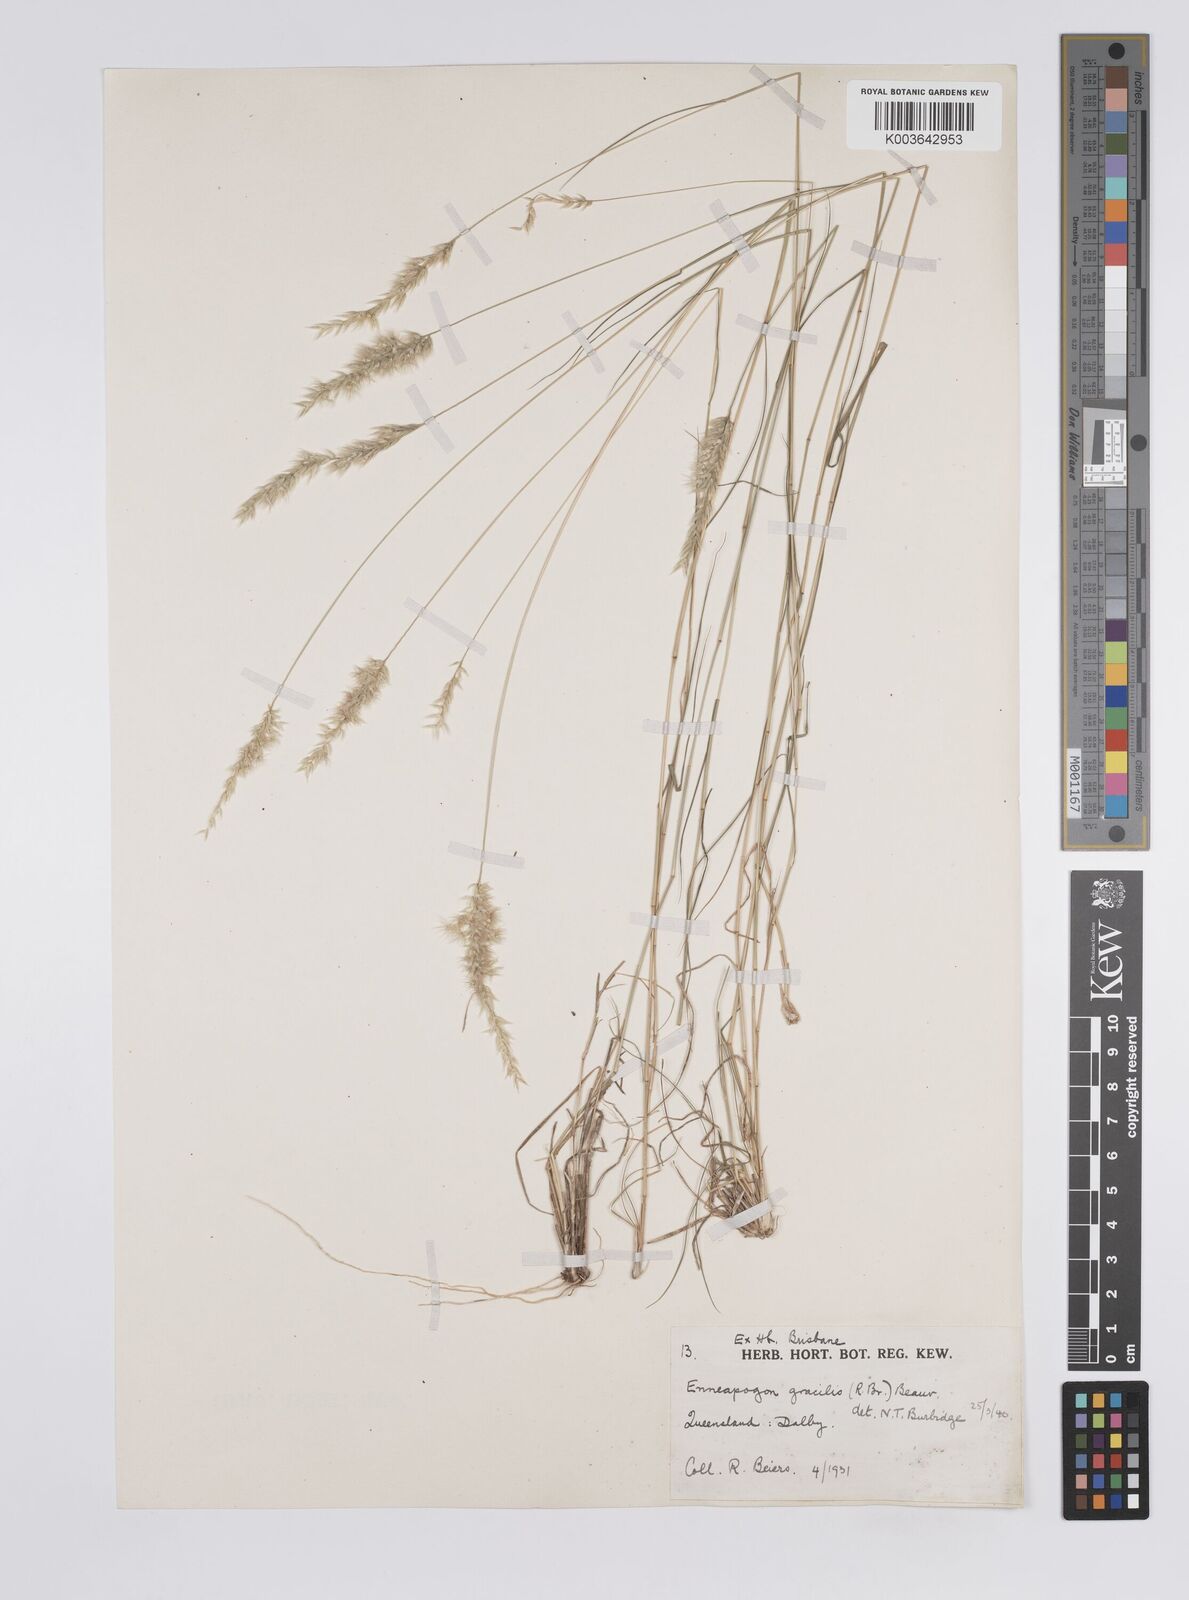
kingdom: Plantae
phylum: Tracheophyta
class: Liliopsida
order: Poales
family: Poaceae
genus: Enneapogon
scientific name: Enneapogon gracilis
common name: Slender bottle-washers
